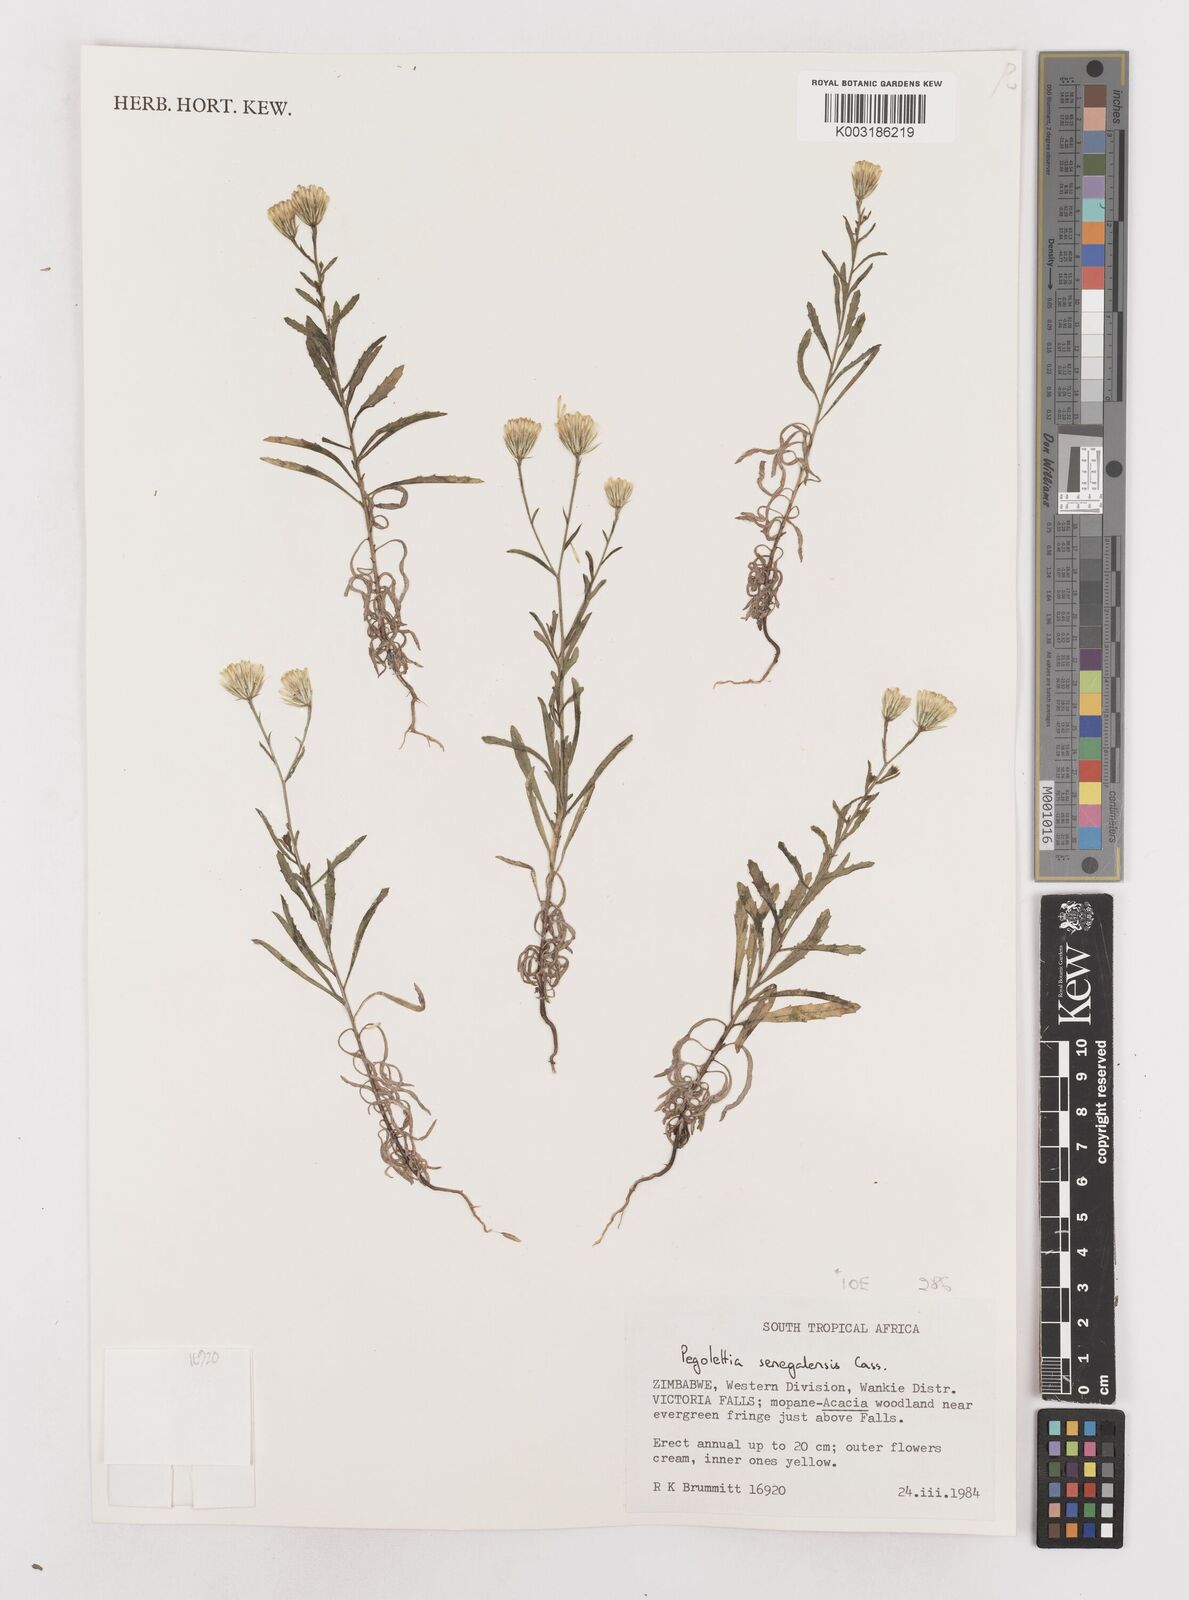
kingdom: Plantae
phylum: Tracheophyta
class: Magnoliopsida
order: Asterales
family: Asteraceae
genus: Pegolettia
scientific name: Pegolettia senegalensis
